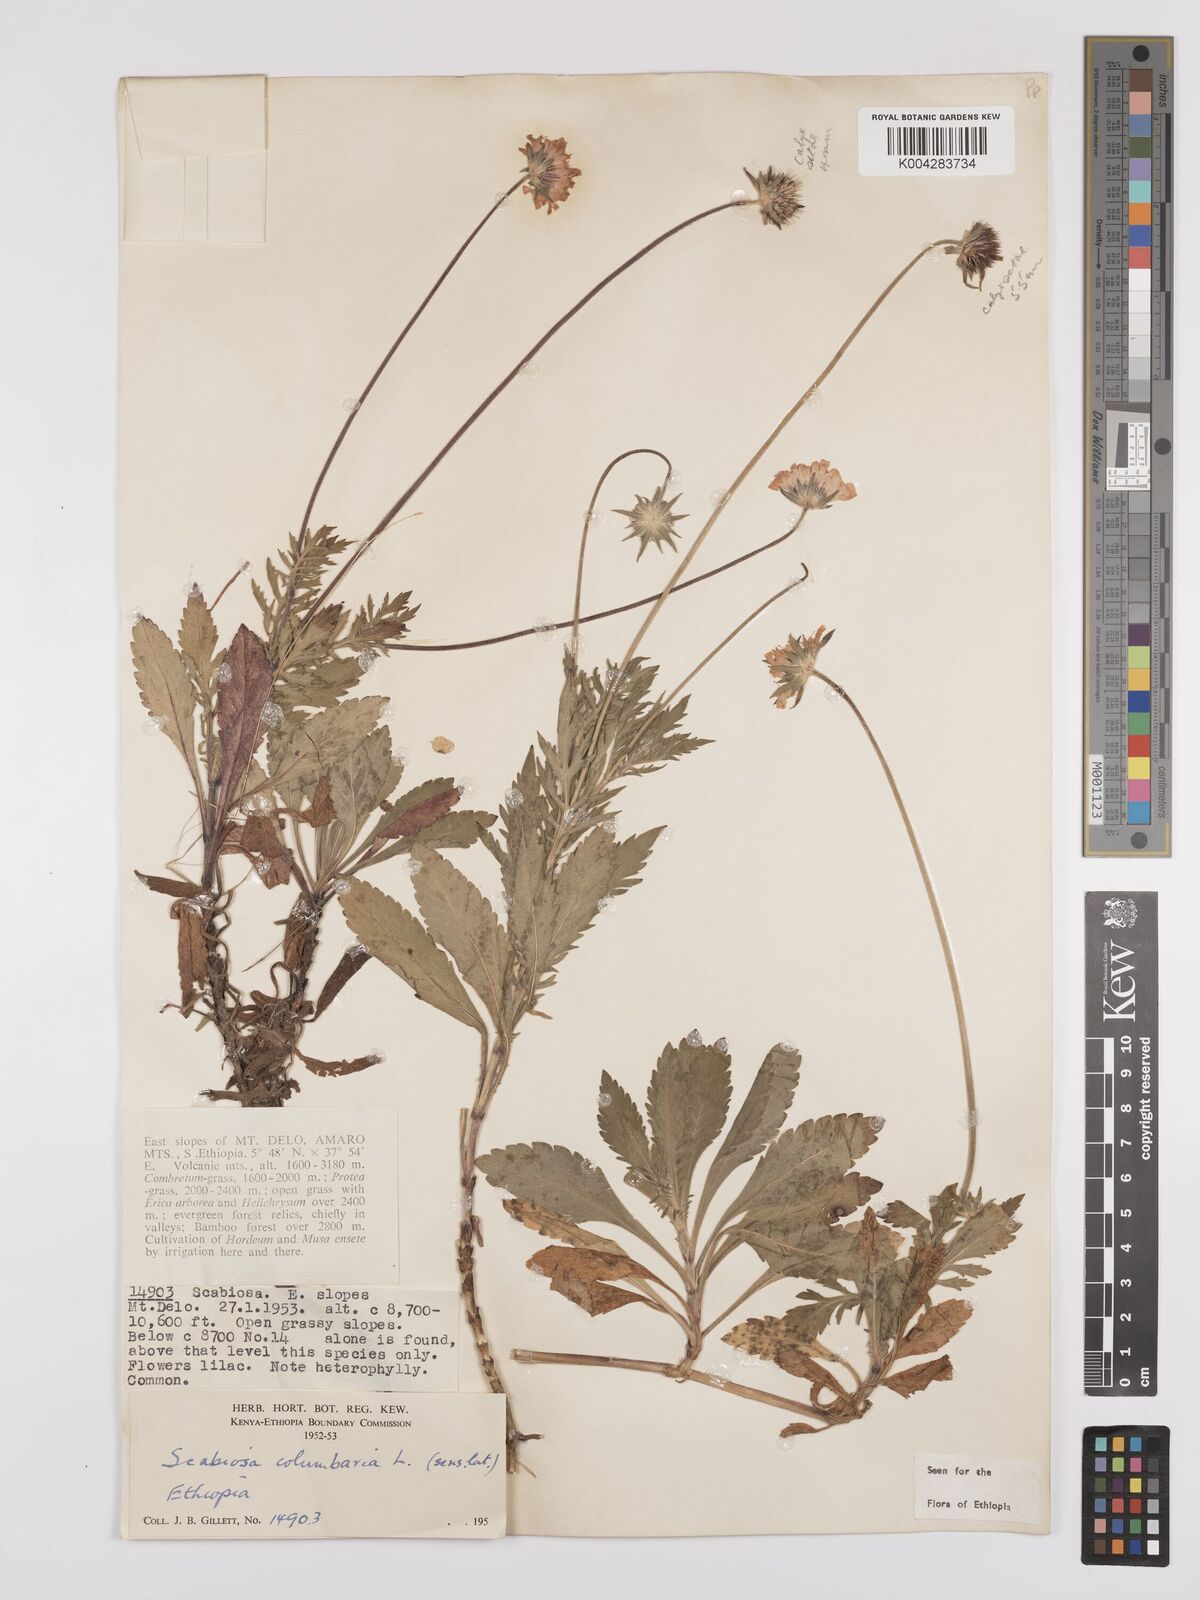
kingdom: Plantae
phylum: Tracheophyta
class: Magnoliopsida
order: Dipsacales
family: Caprifoliaceae
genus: Scabiosa
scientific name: Scabiosa columbaria
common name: Small scabious
